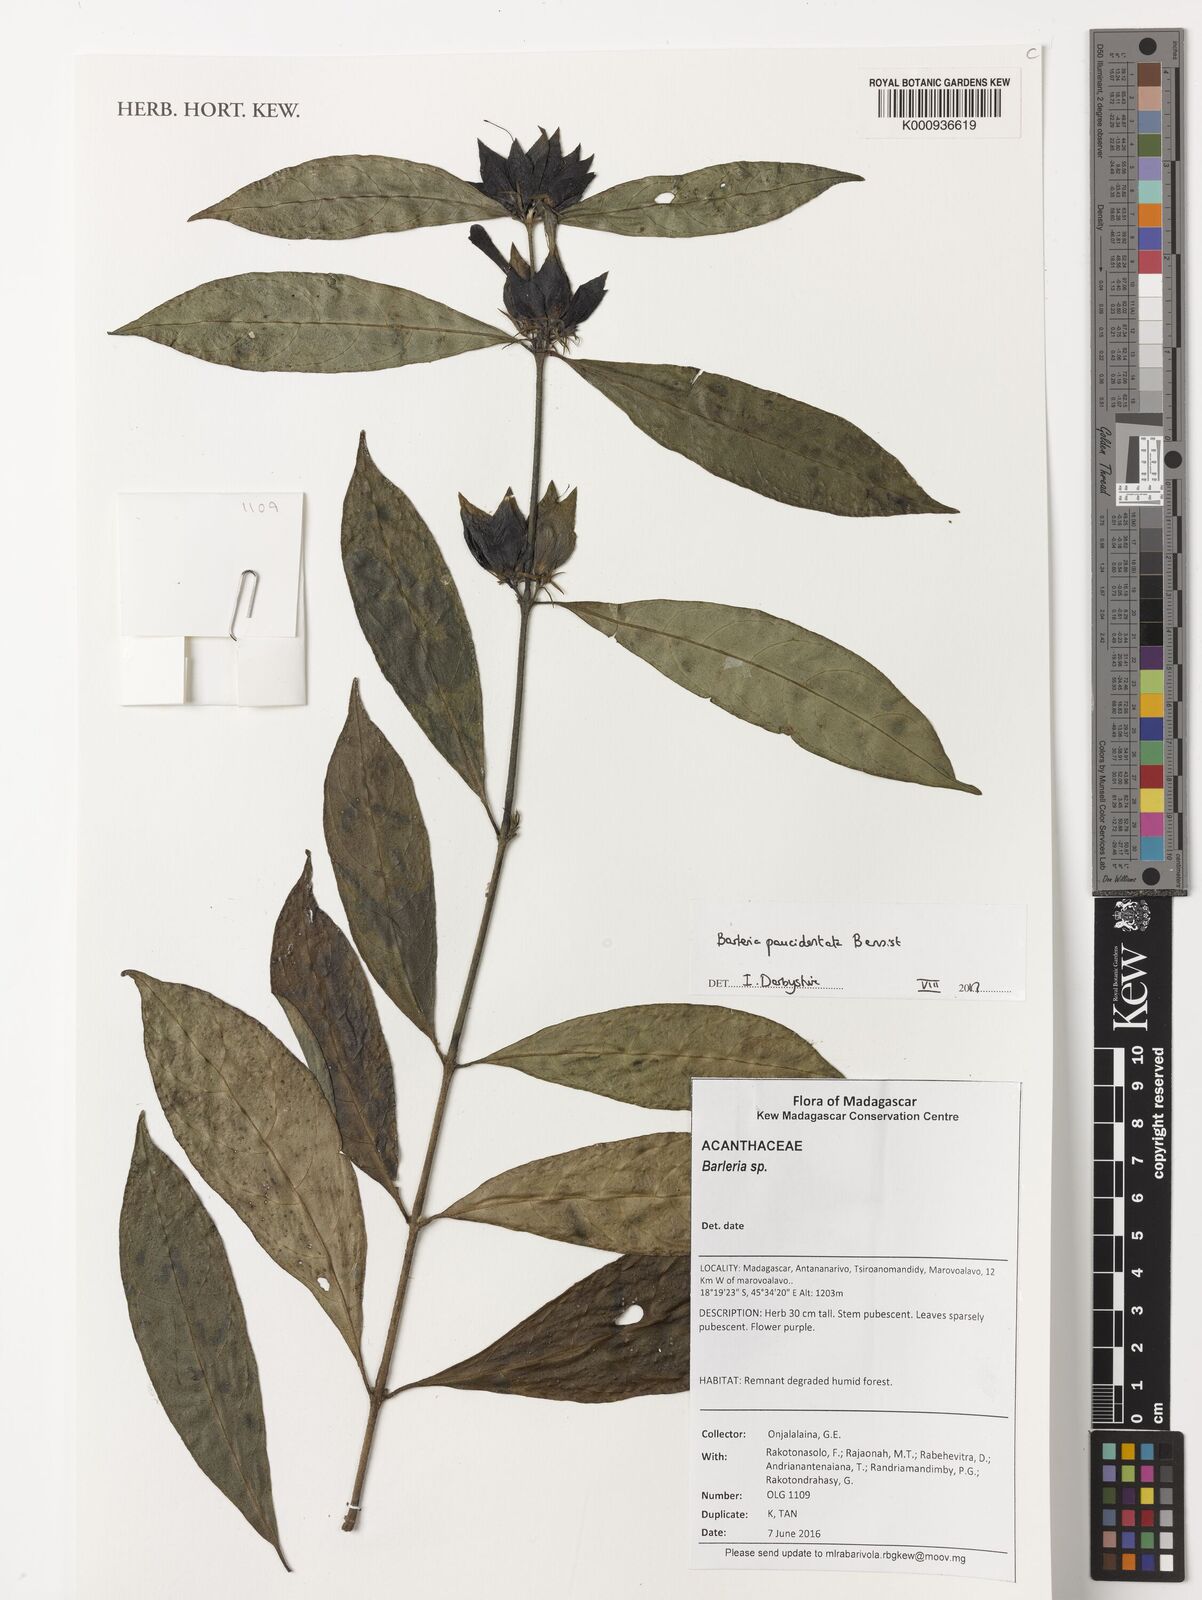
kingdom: Plantae
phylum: Tracheophyta
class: Magnoliopsida
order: Lamiales
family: Acanthaceae
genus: Barleria
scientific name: Barleria paucidentata
